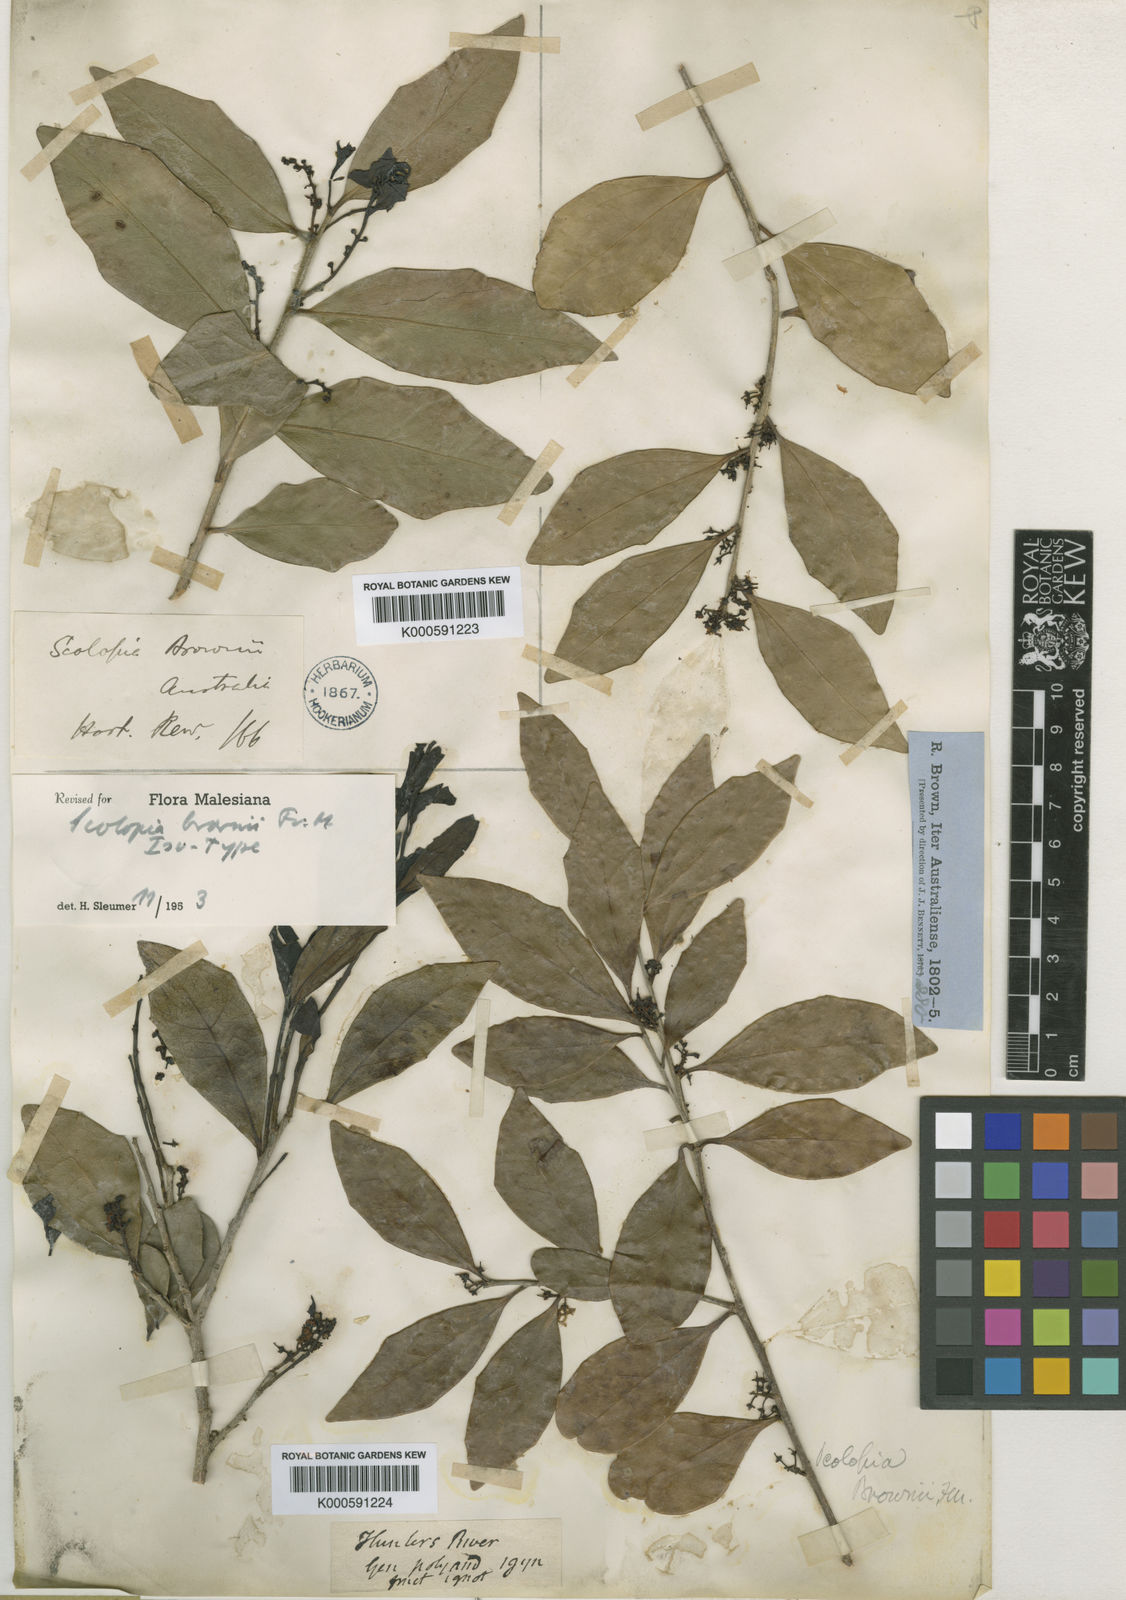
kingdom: Plantae
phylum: Tracheophyta
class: Magnoliopsida
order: Malpighiales
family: Salicaceae
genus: Scolopia
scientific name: Scolopia brownii
